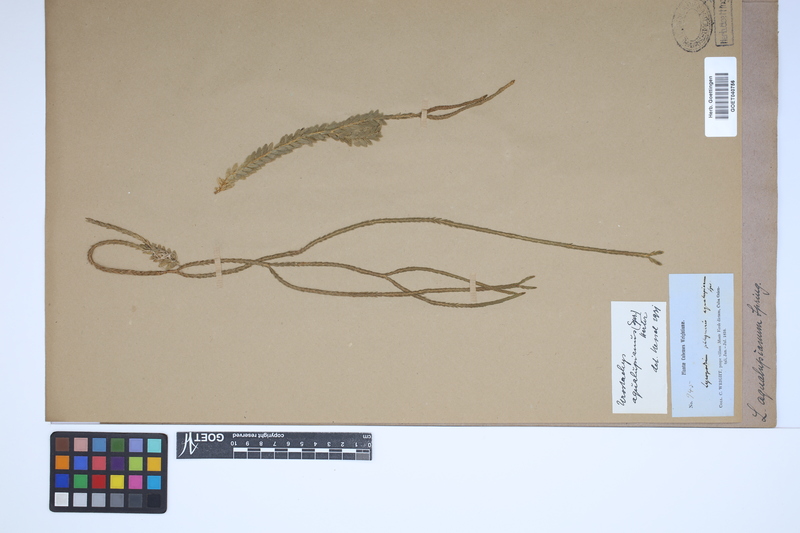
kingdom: Plantae
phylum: Tracheophyta
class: Lycopodiopsida
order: Lycopodiales
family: Lycopodiaceae
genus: Phlegmariurus
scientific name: Phlegmariurus aqualupianus
